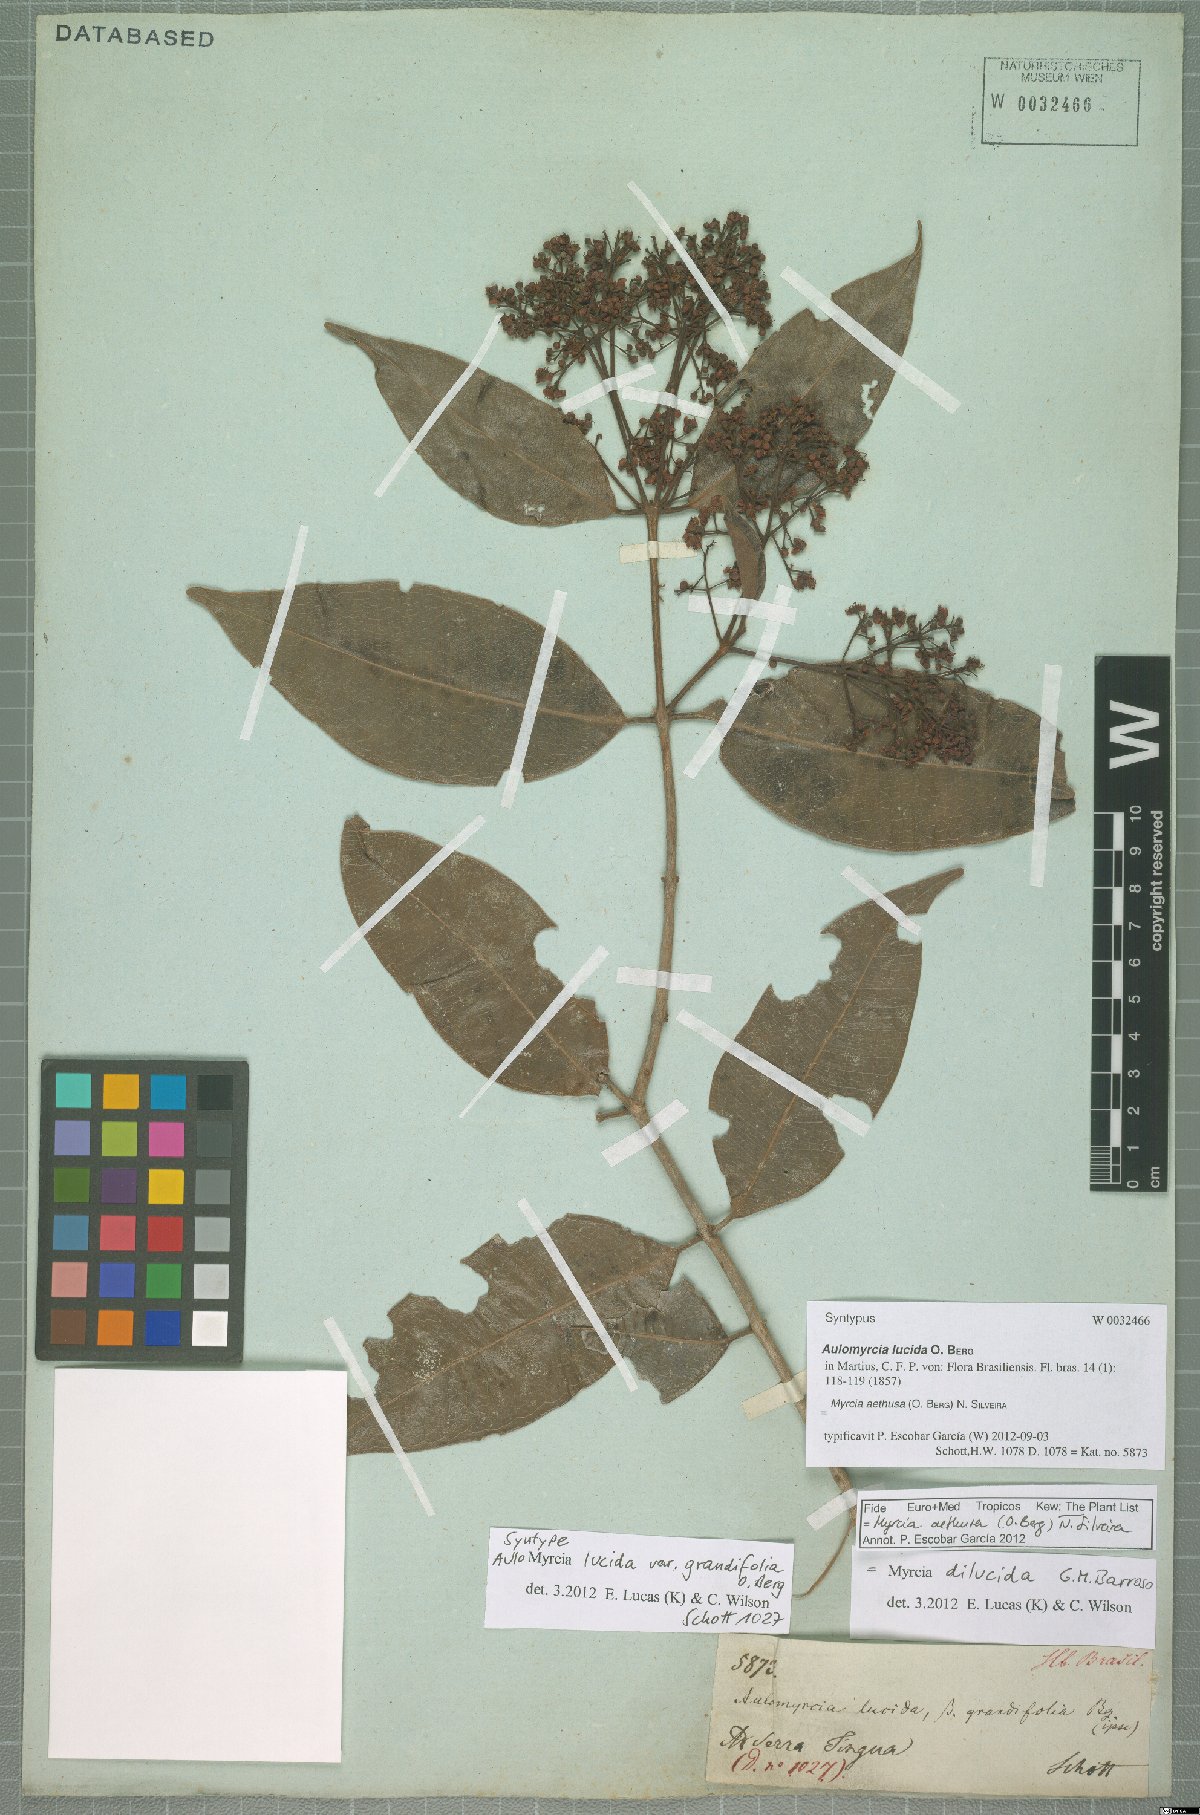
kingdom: Plantae
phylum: Tracheophyta
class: Magnoliopsida
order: Myrtales
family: Myrtaceae
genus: Myrcia
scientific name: Myrcia aethusa
